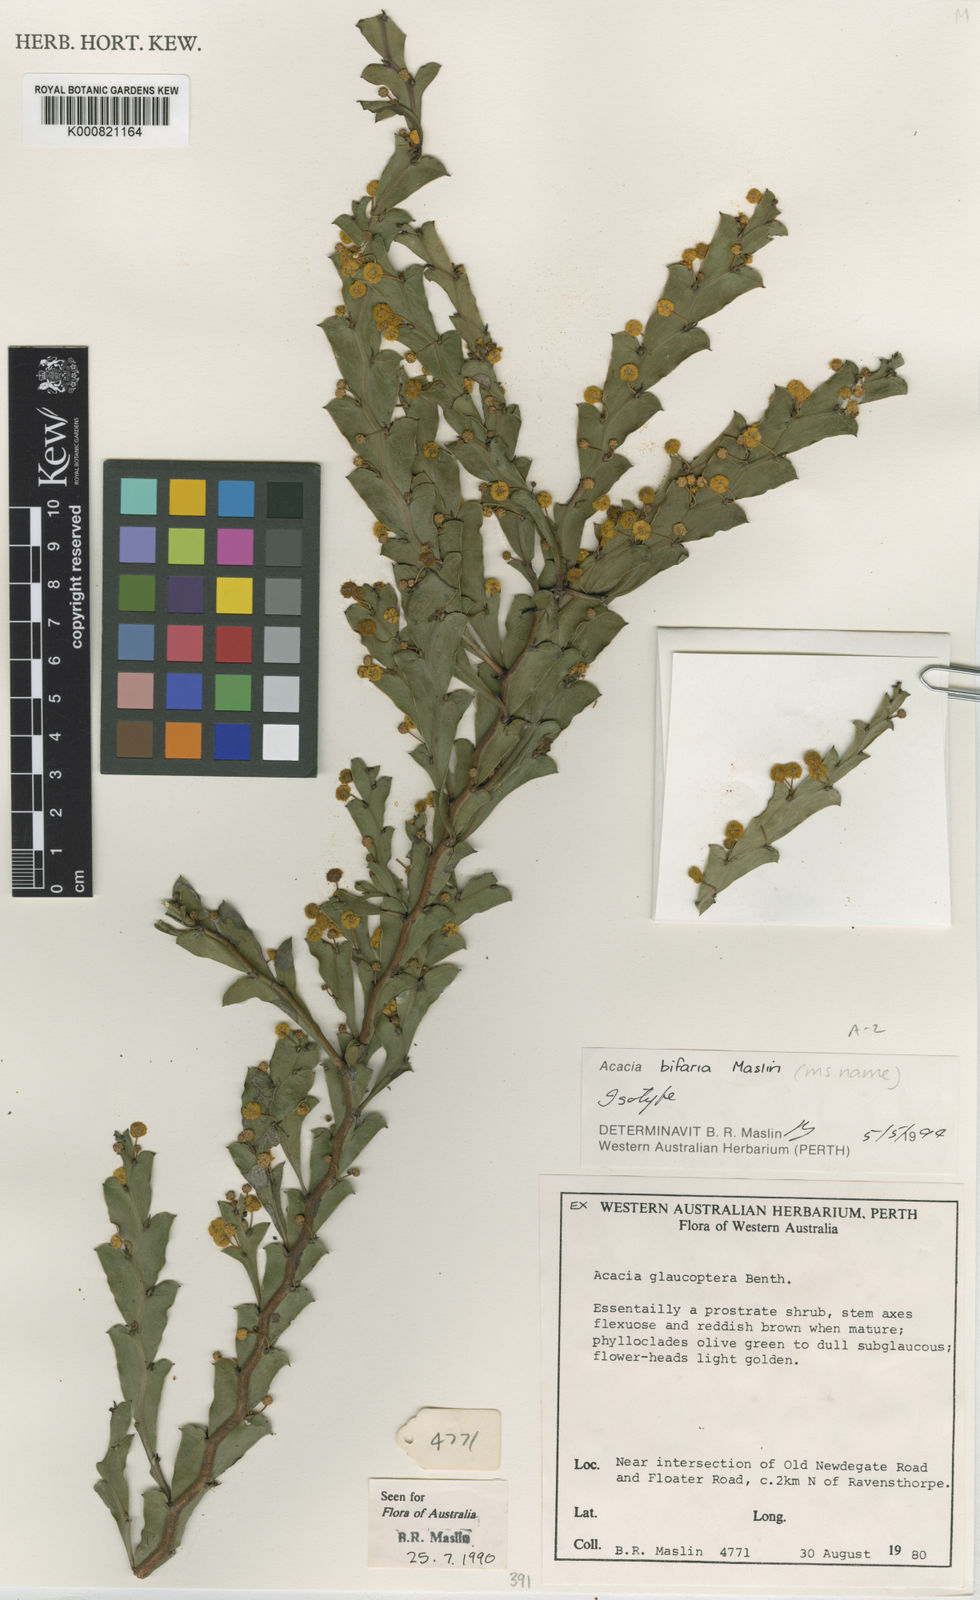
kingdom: Plantae
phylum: Tracheophyta
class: Magnoliopsida
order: Fabales
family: Fabaceae
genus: Acacia
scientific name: Acacia bifaria
